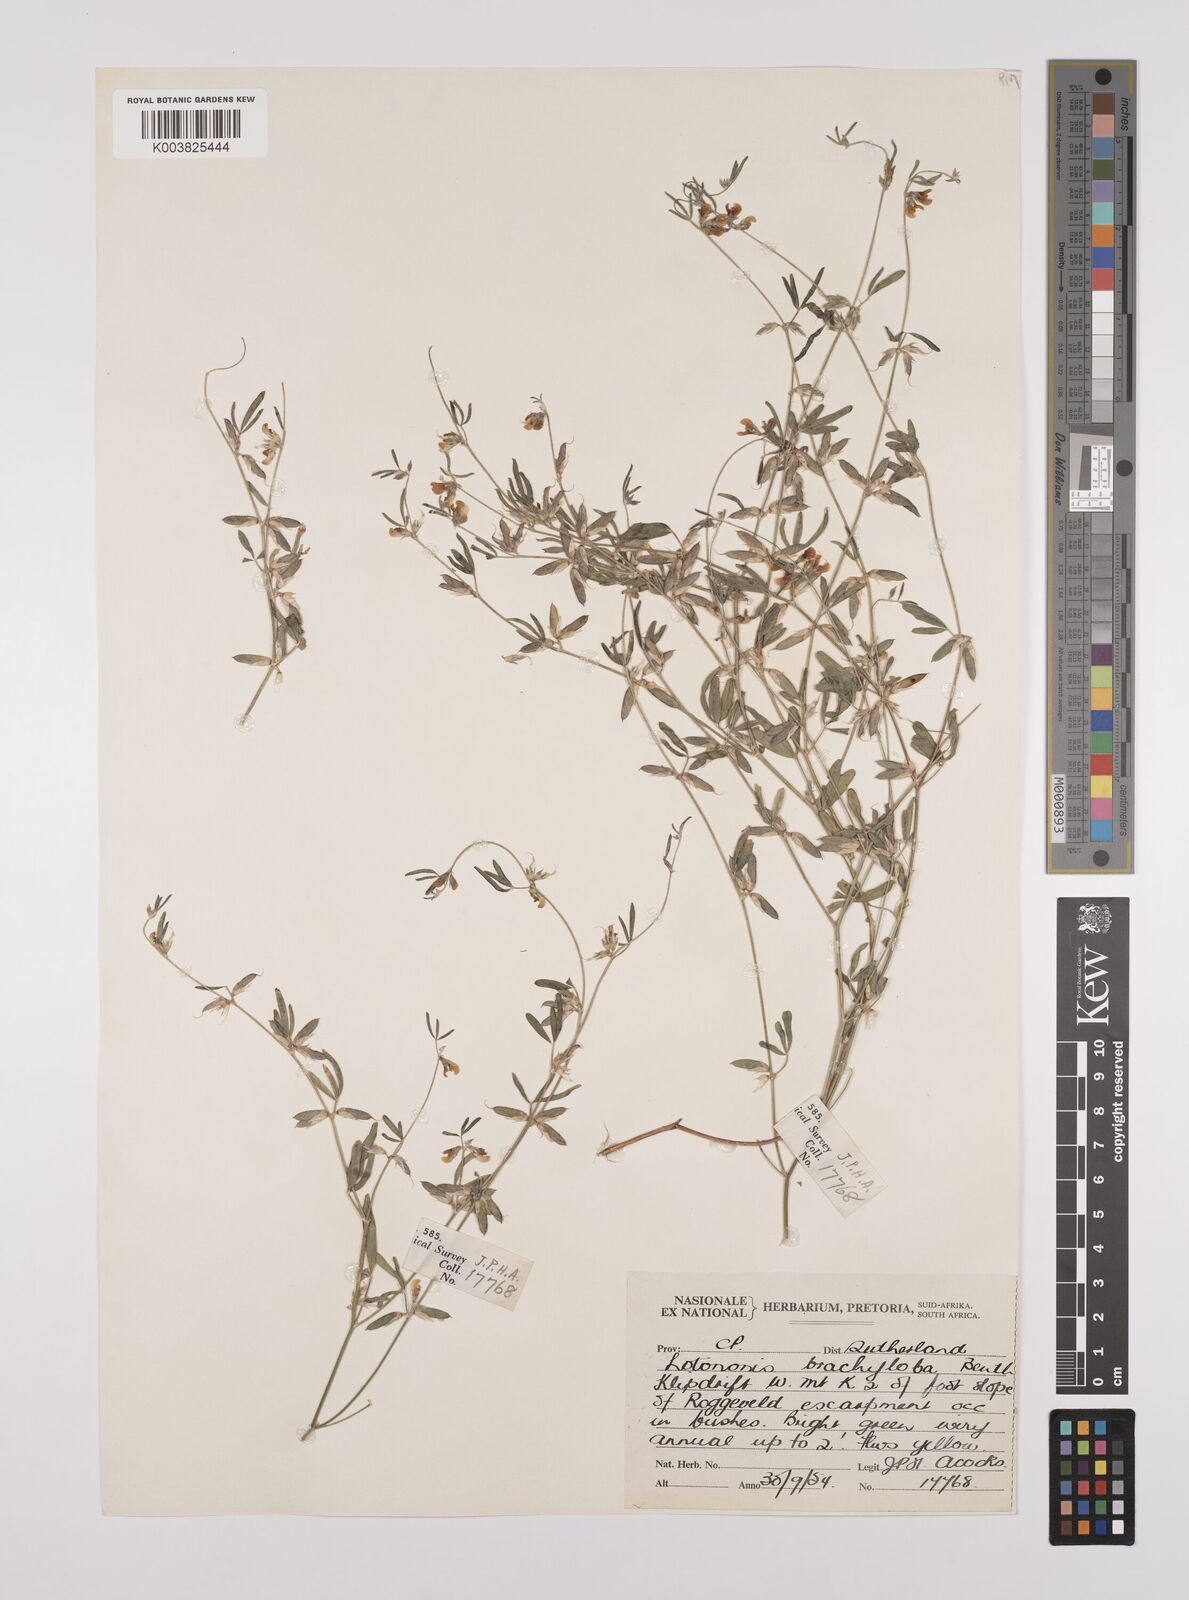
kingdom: Plantae
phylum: Tracheophyta
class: Magnoliopsida
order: Fabales
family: Fabaceae
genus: Lotononis
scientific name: Lotononis parviflora
